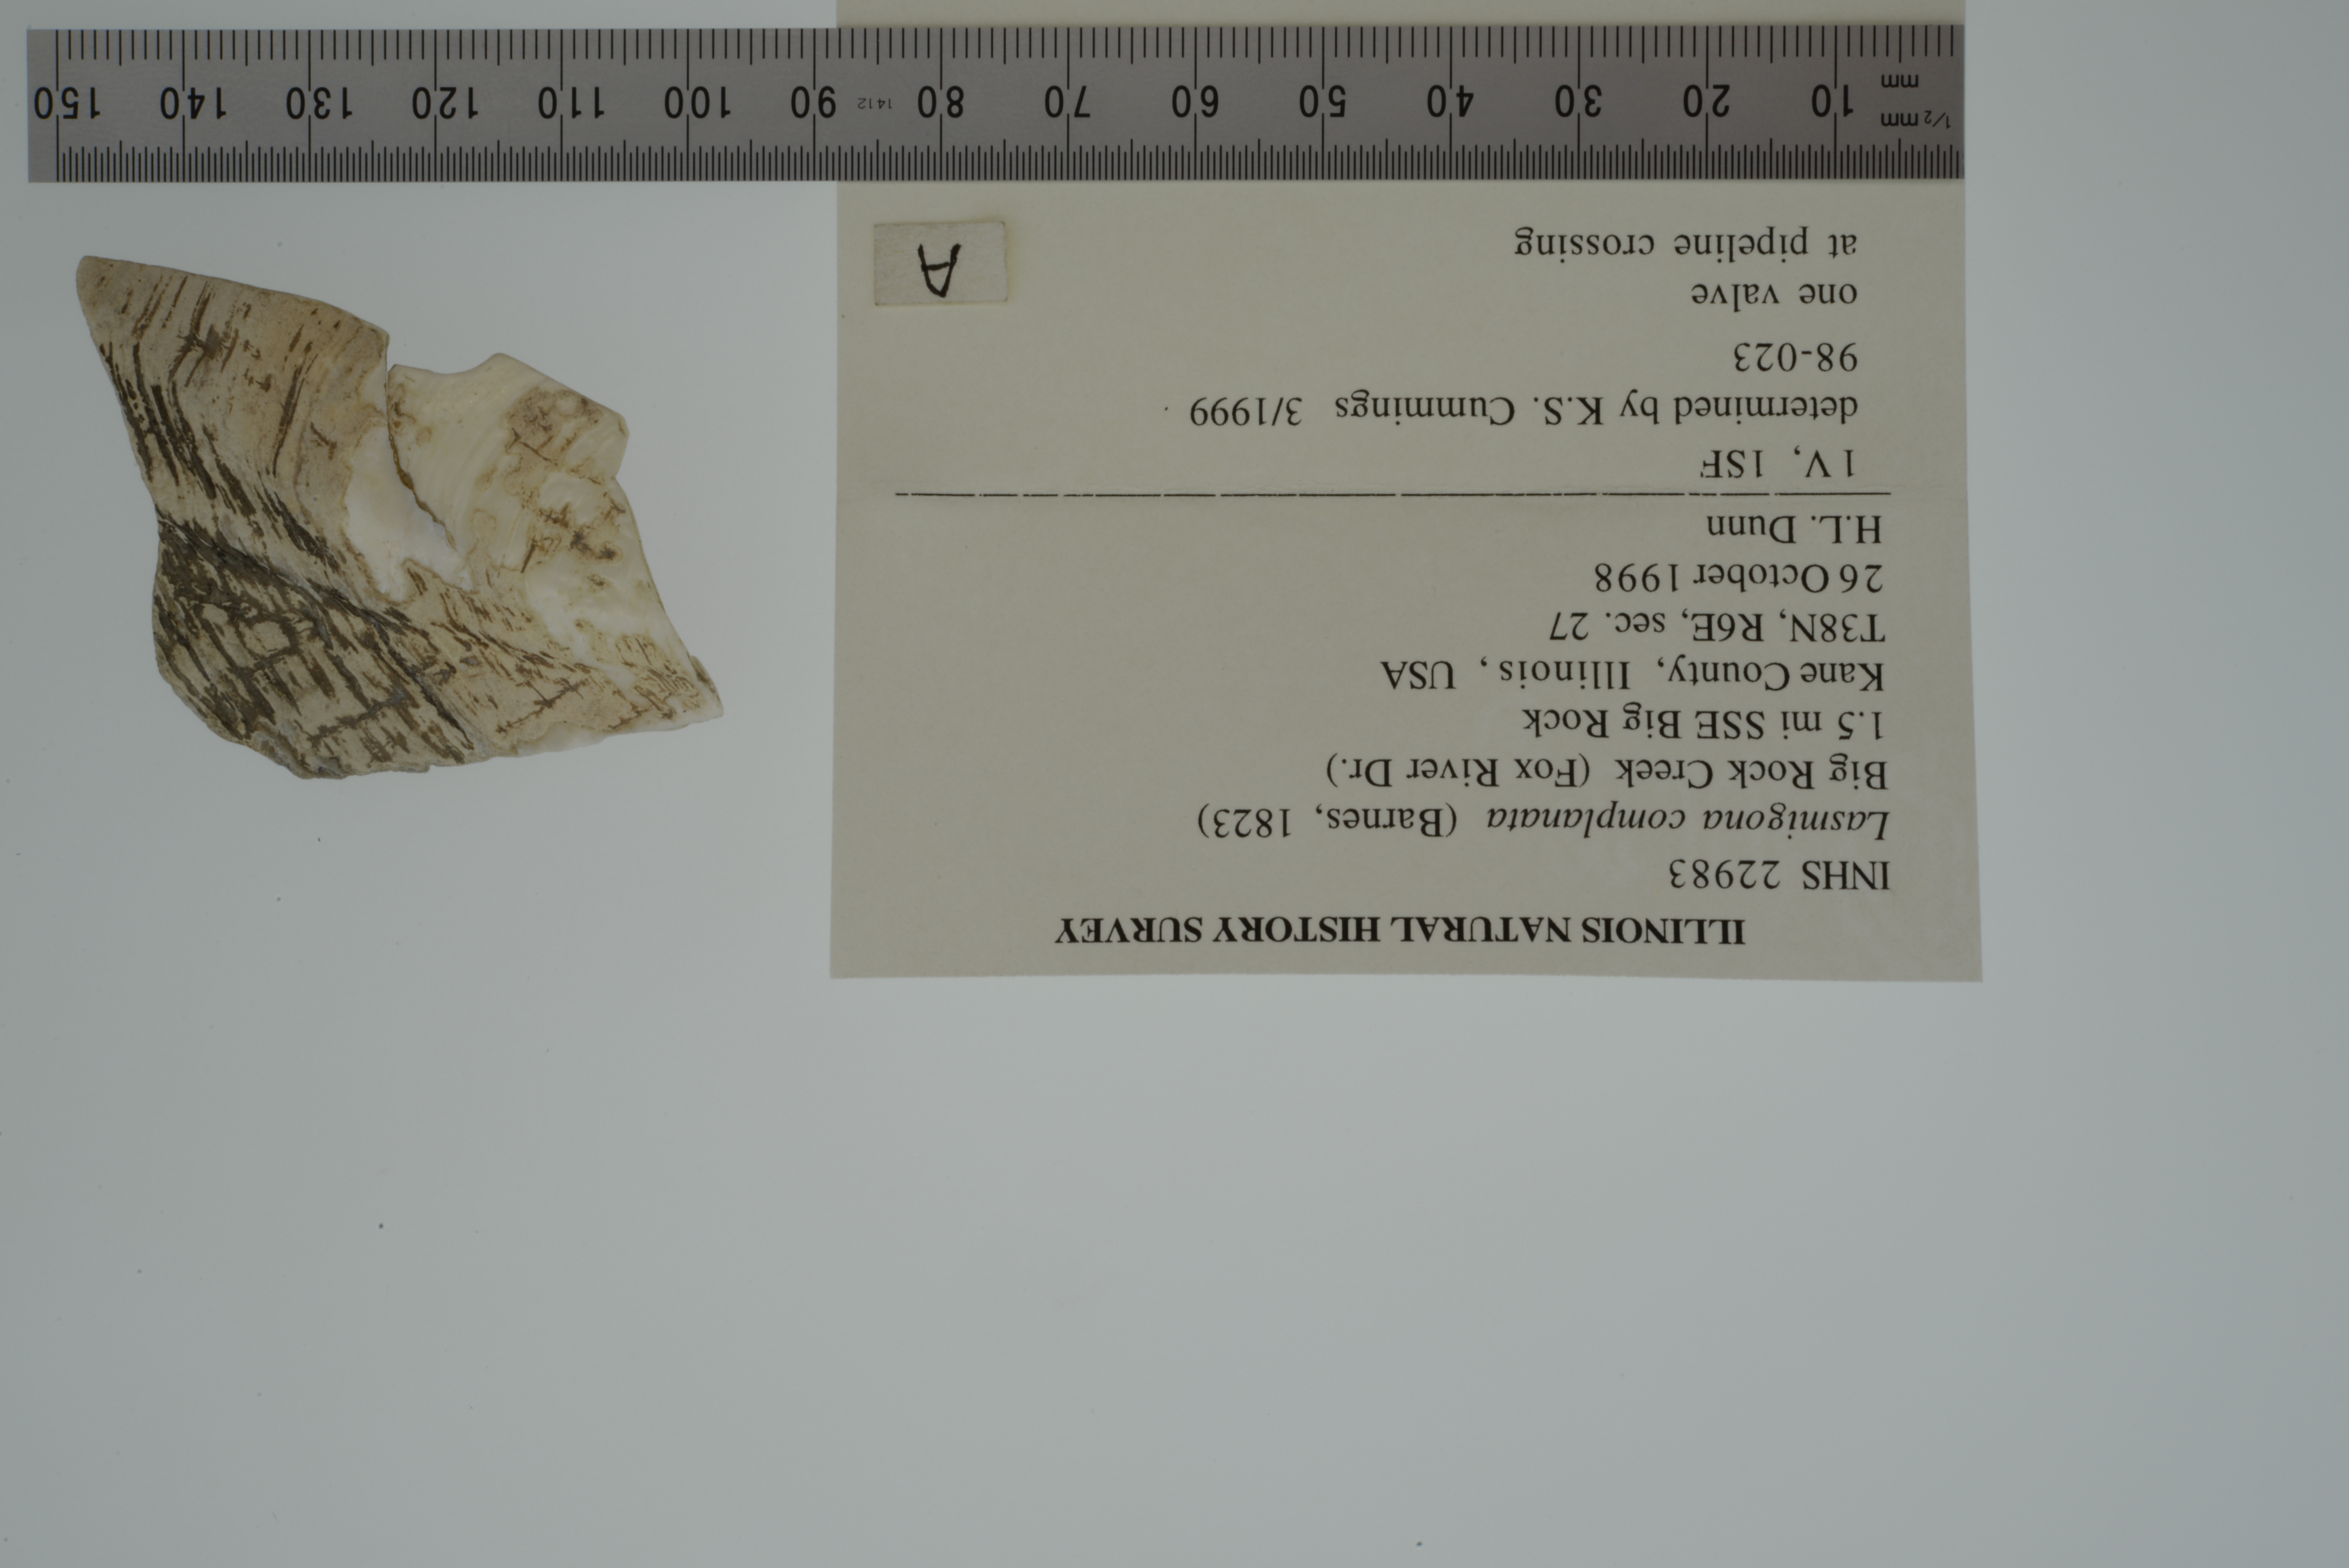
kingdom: Animalia
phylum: Mollusca
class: Bivalvia
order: Unionida
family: Unionidae
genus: Lasmigona
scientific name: Lasmigona complanata
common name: White heelsplitter
